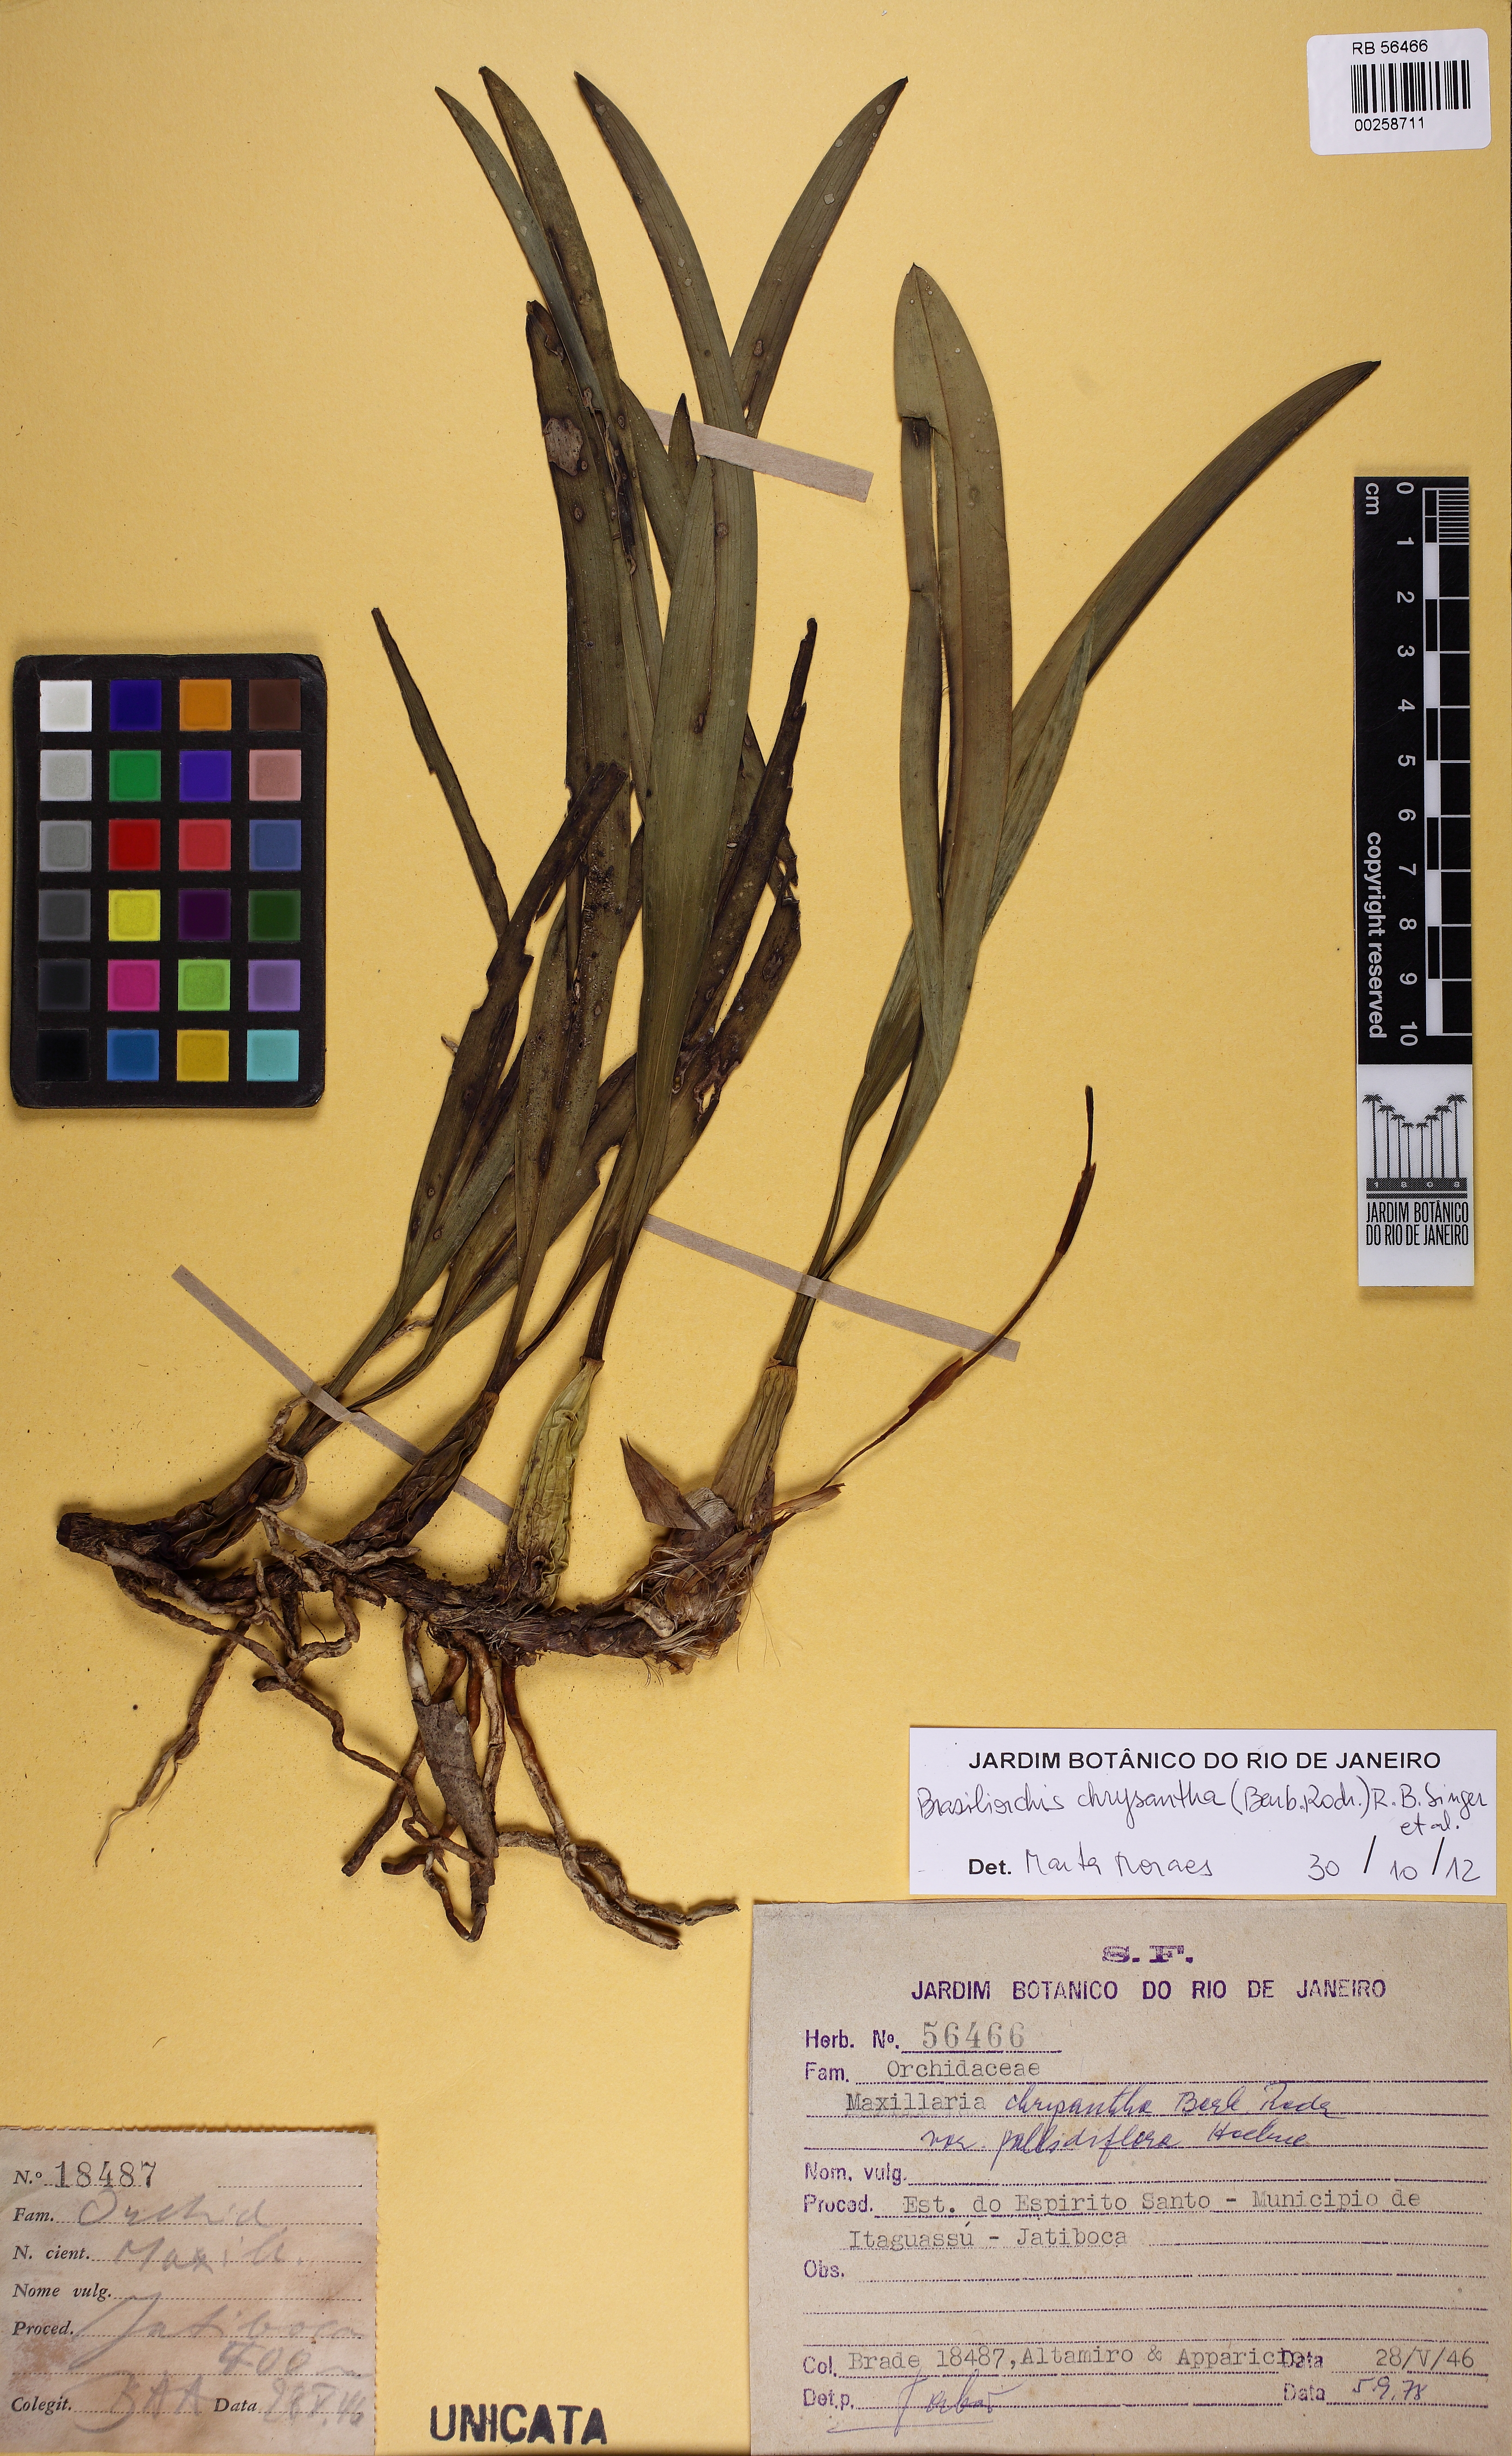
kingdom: Plantae
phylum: Tracheophyta
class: Liliopsida
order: Asparagales
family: Orchidaceae
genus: Maxillaria
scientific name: Maxillaria chrysantha
